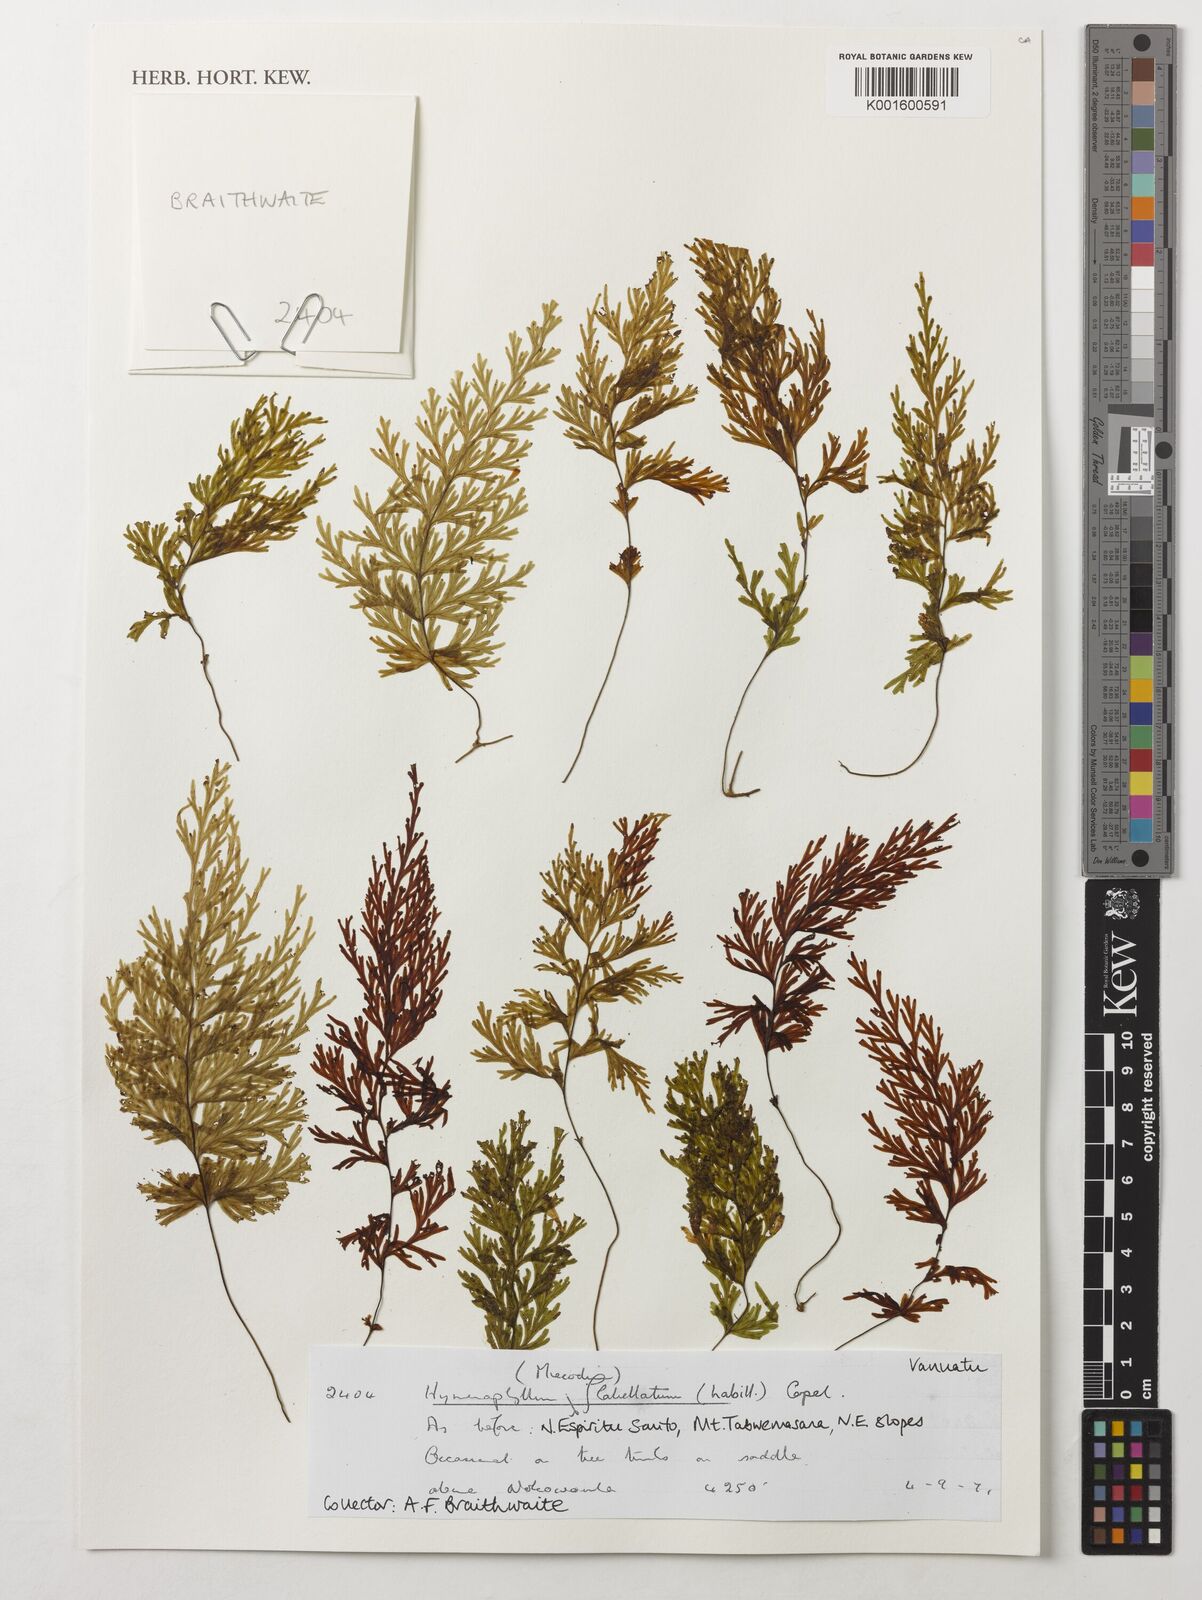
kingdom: Plantae
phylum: Tracheophyta
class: Polypodiopsida
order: Hymenophyllales
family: Hymenophyllaceae
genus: Hymenophyllum
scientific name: Hymenophyllum flabellatum
